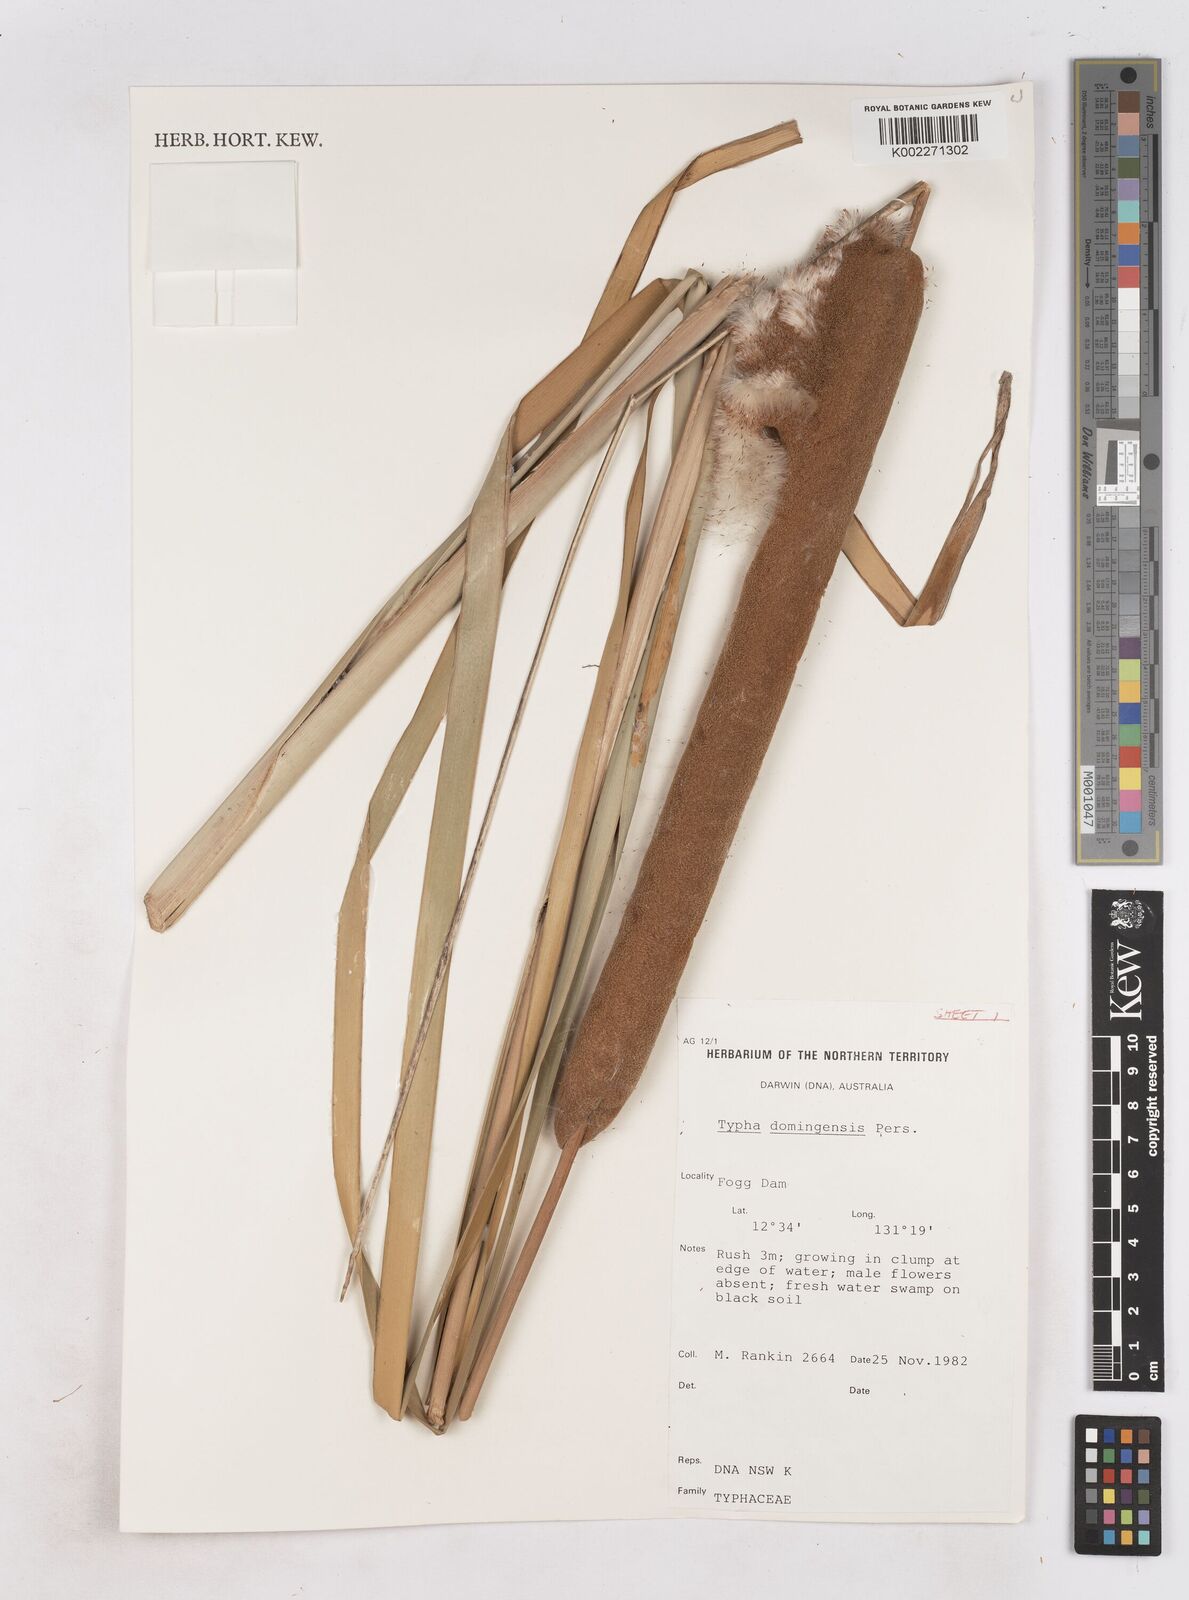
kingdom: Plantae
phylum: Tracheophyta
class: Liliopsida
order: Poales
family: Typhaceae
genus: Typha
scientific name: Typha domingensis
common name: Southern cattail
